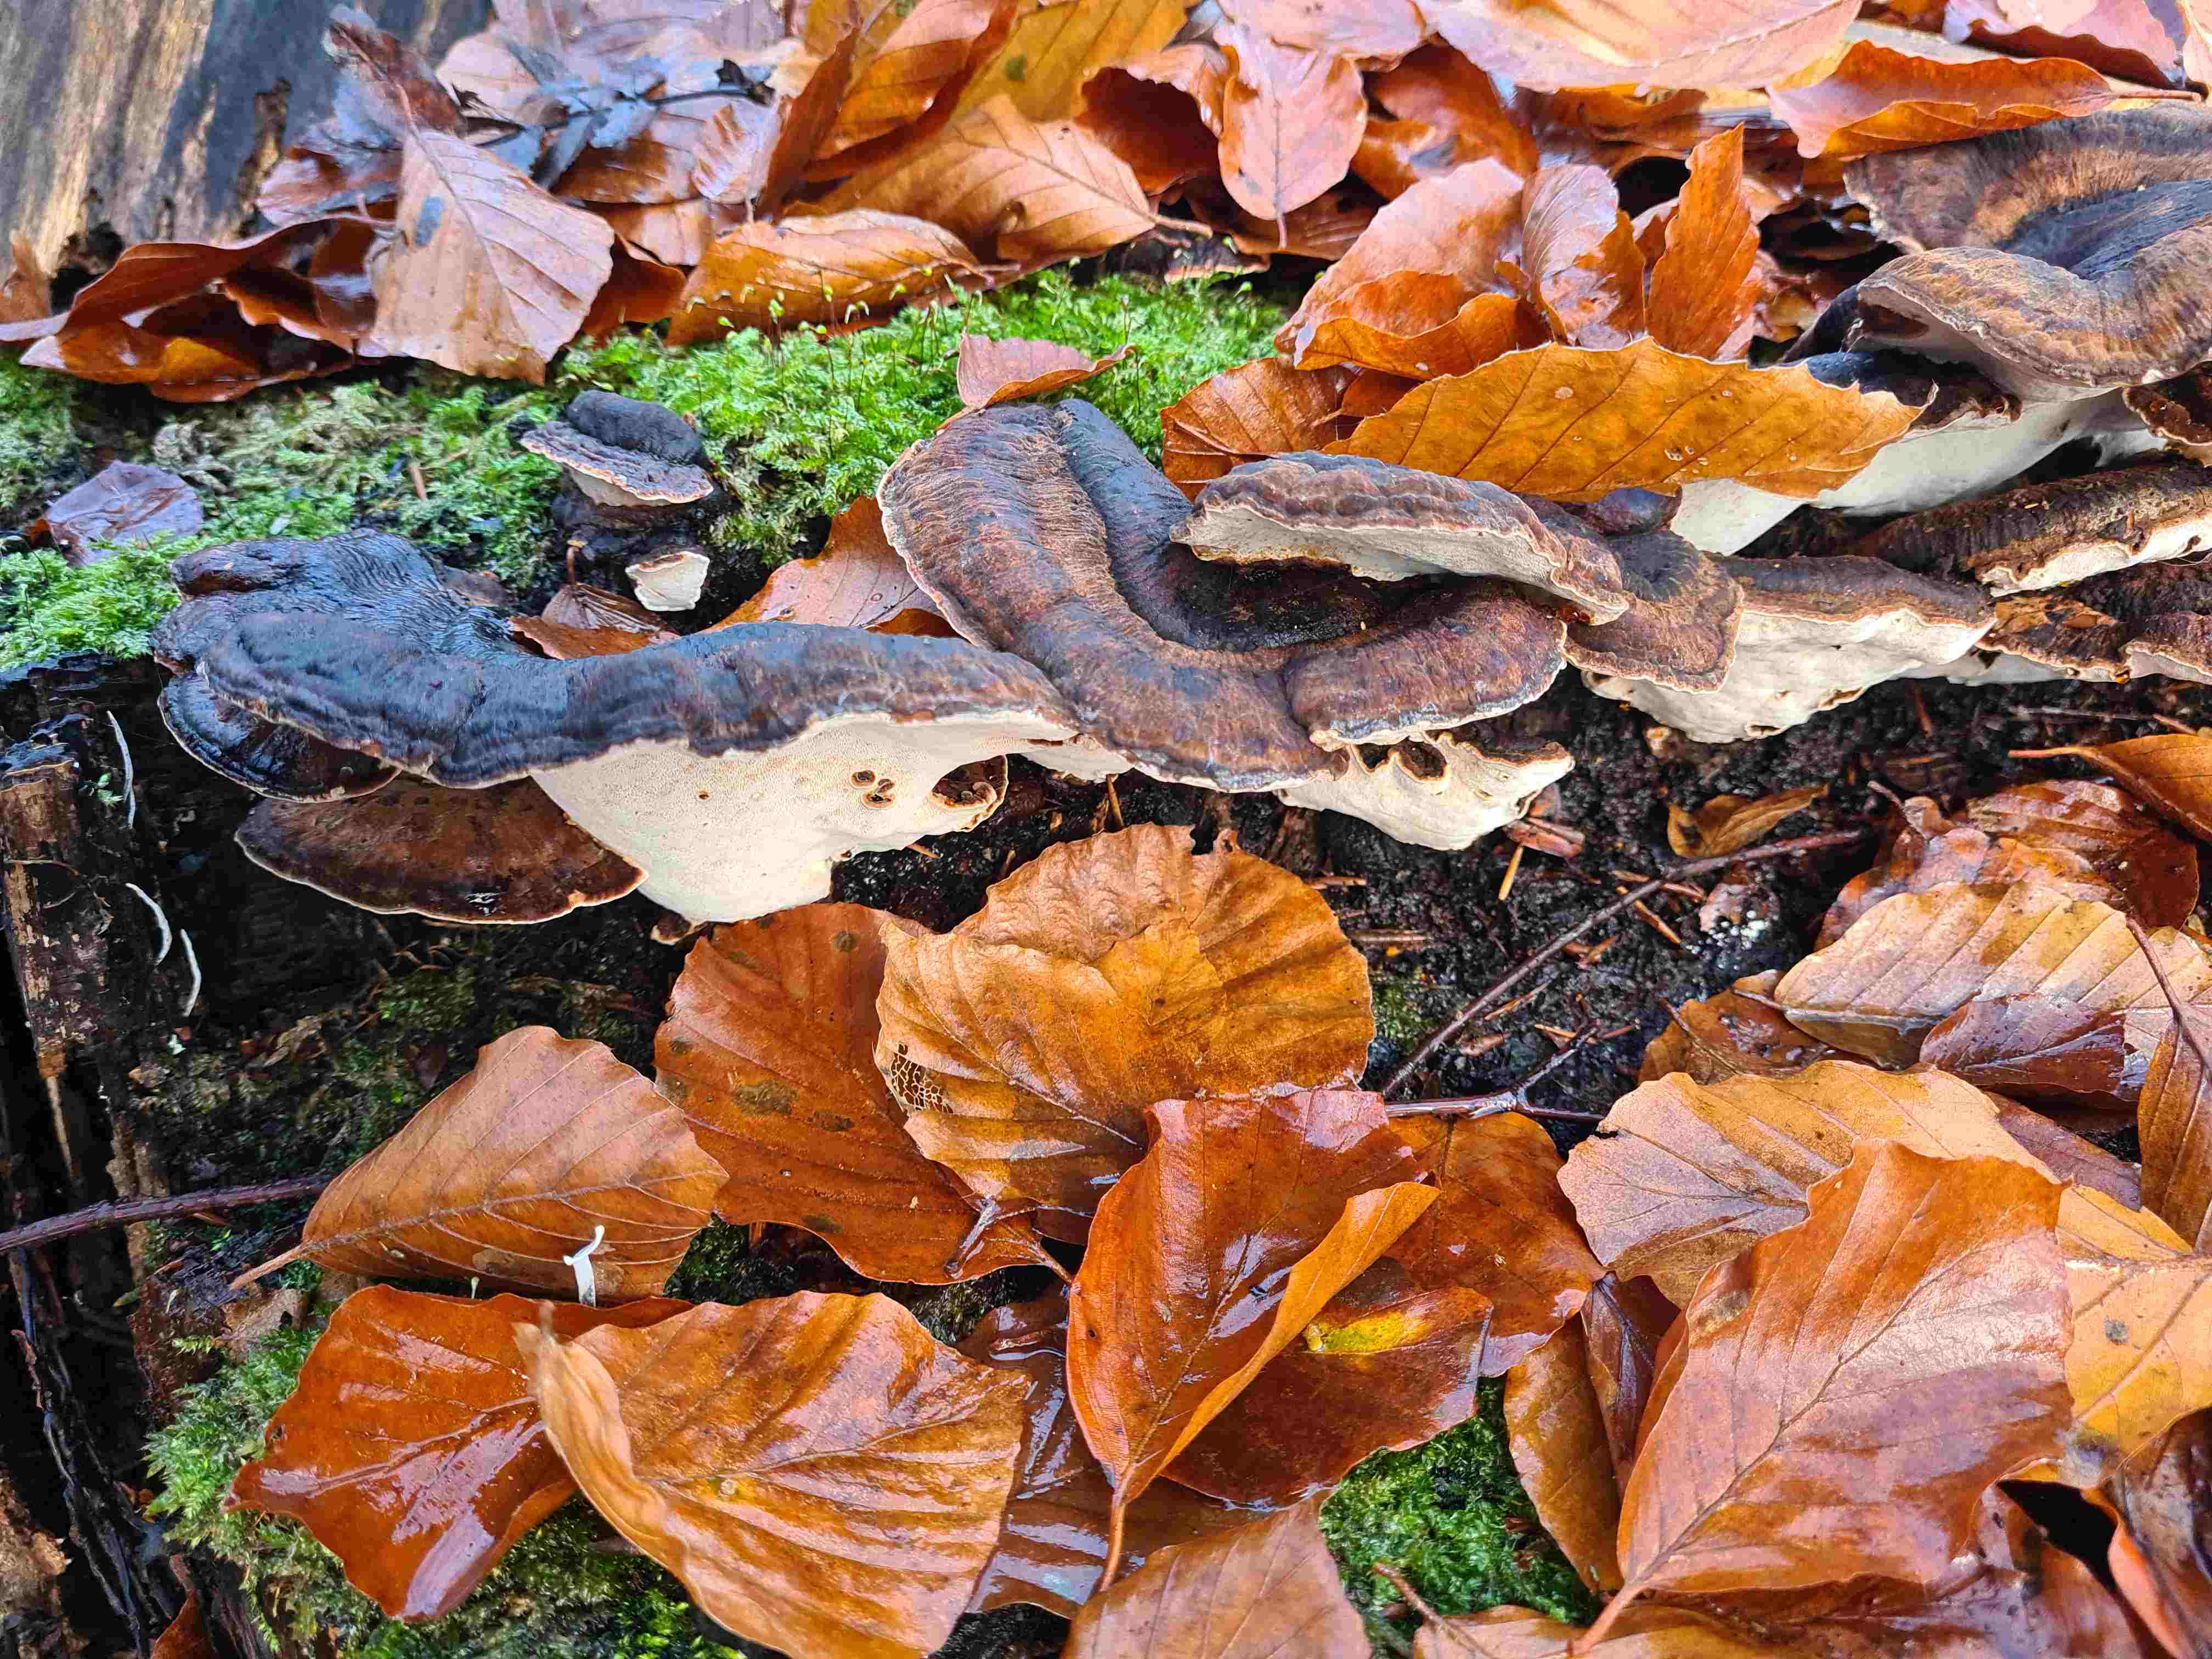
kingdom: Fungi
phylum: Basidiomycota
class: Agaricomycetes
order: Polyporales
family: Ischnodermataceae
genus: Ischnoderma
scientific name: Ischnoderma resinosum
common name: løv-tjæreporesvamp
